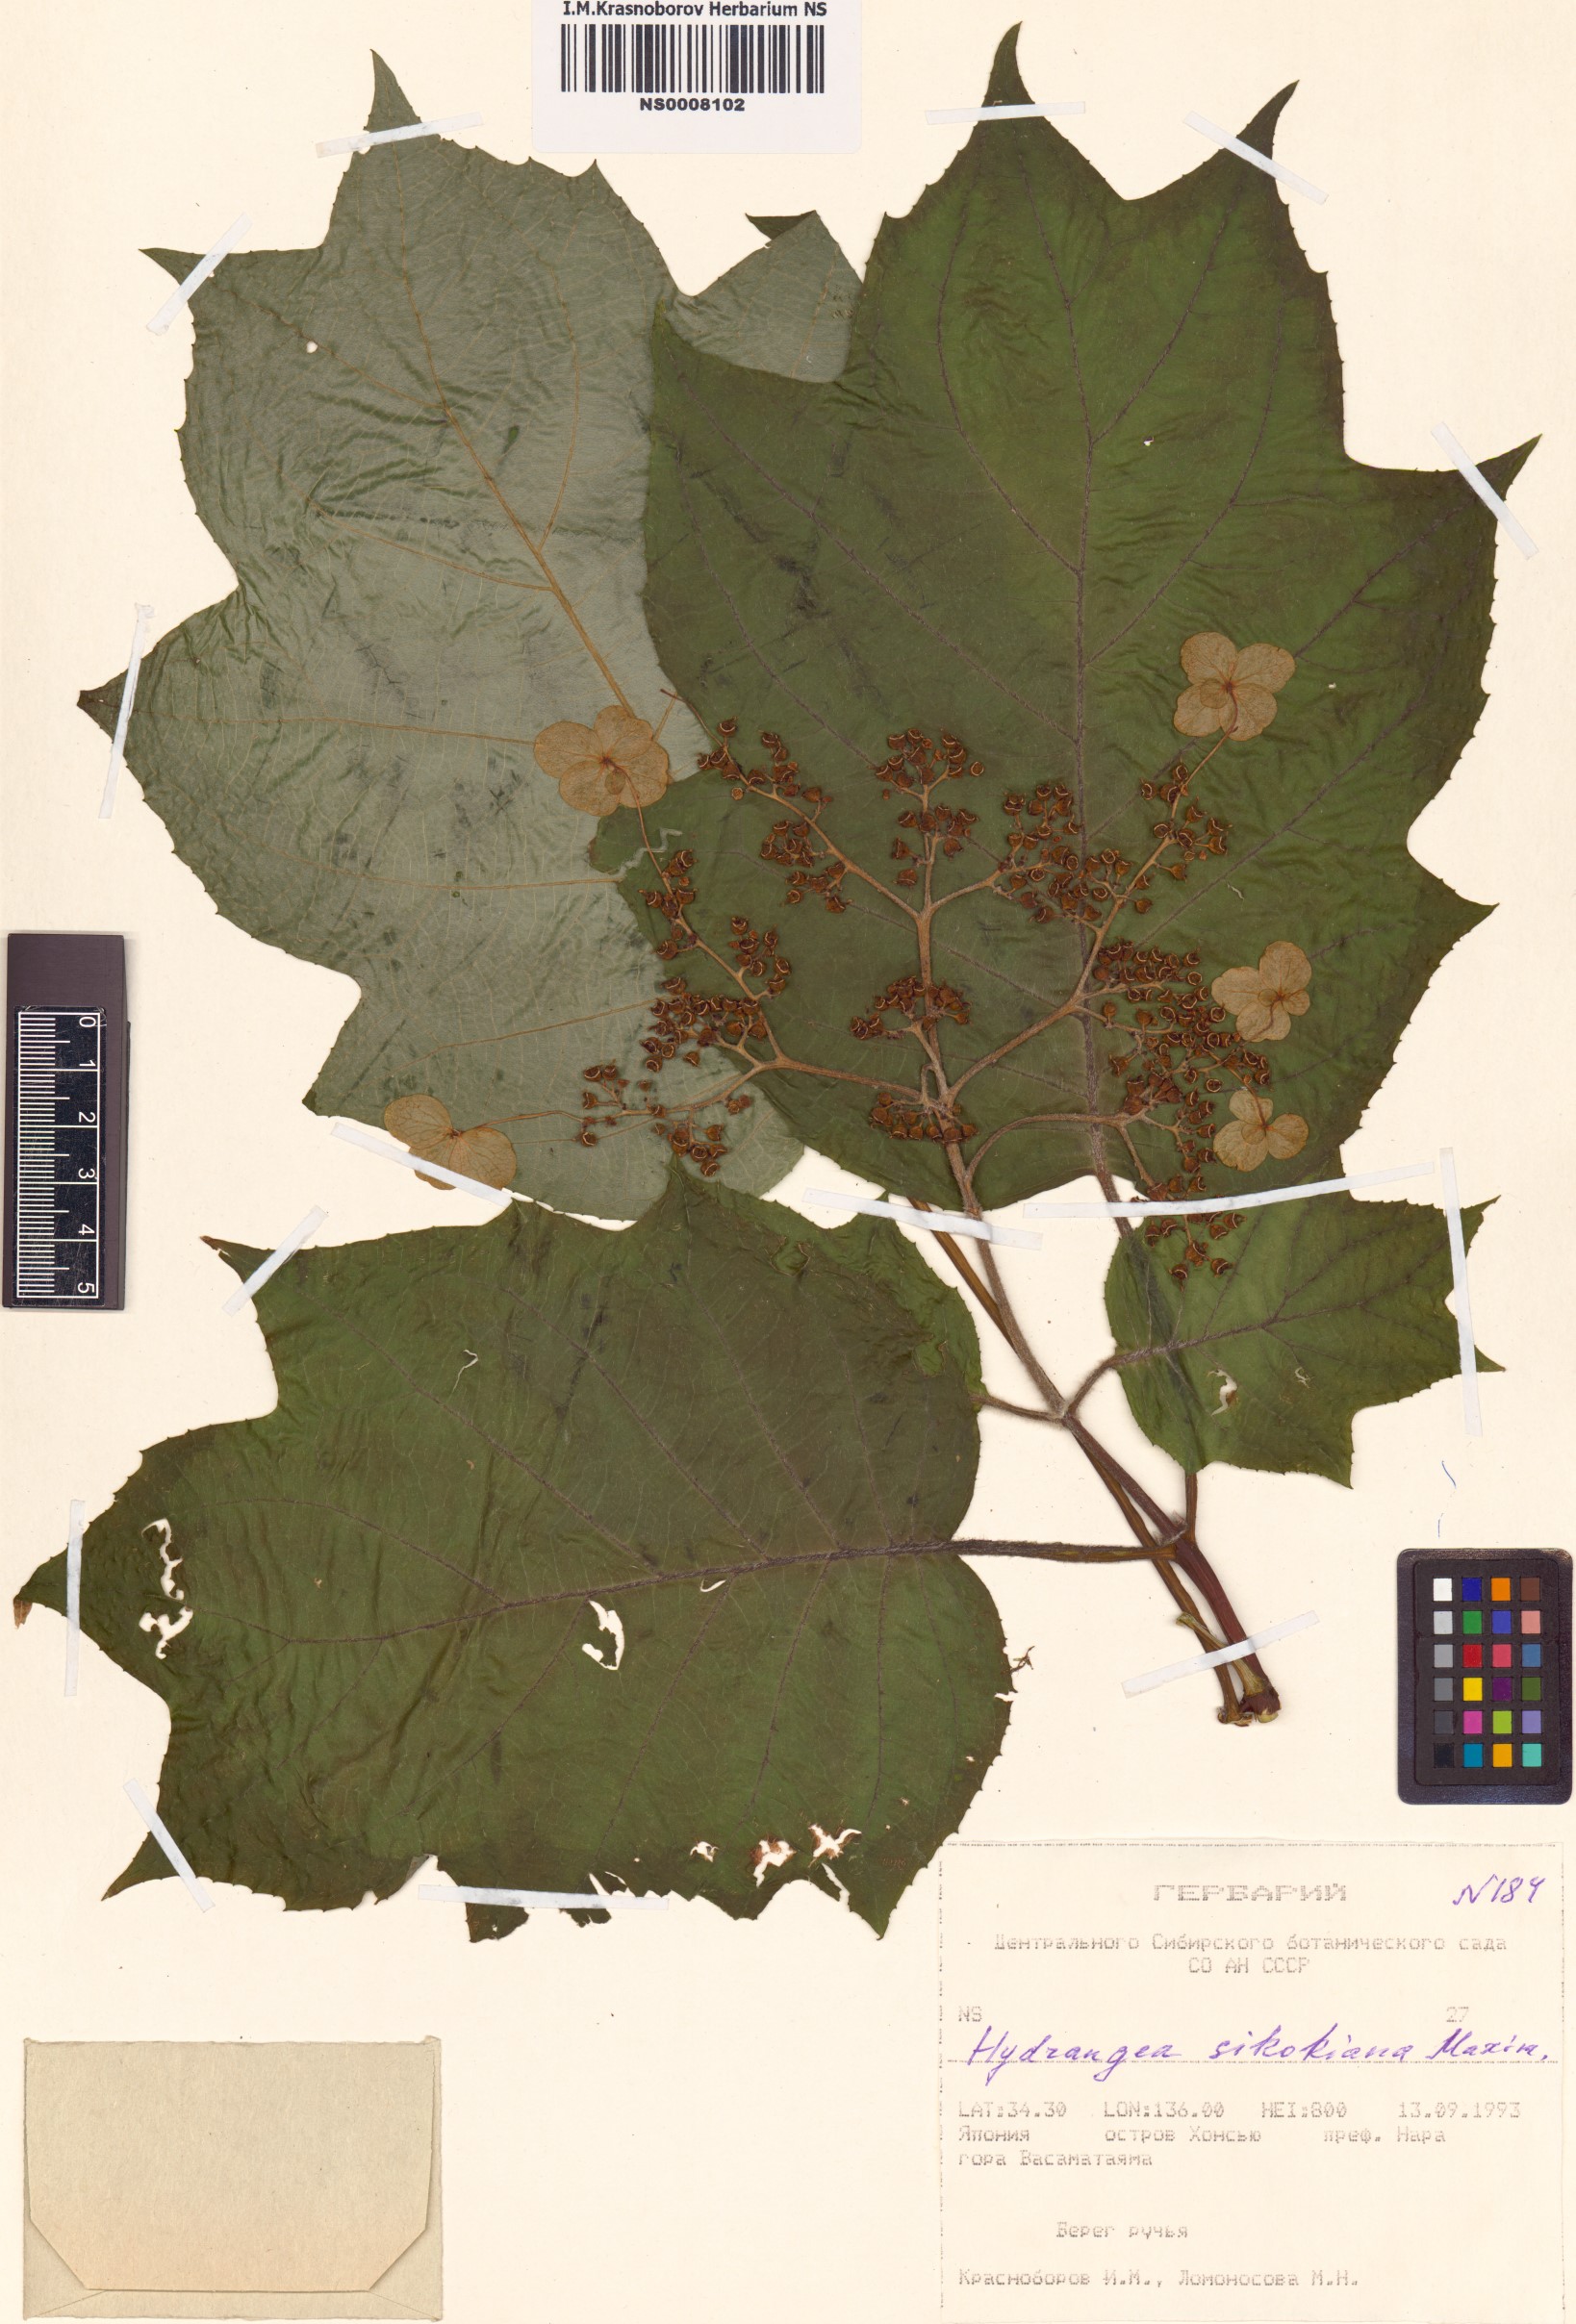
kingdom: Plantae
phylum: Tracheophyta
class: Magnoliopsida
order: Cornales
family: Hydrangeaceae
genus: Hydrangea
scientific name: Hydrangea sikokiana
